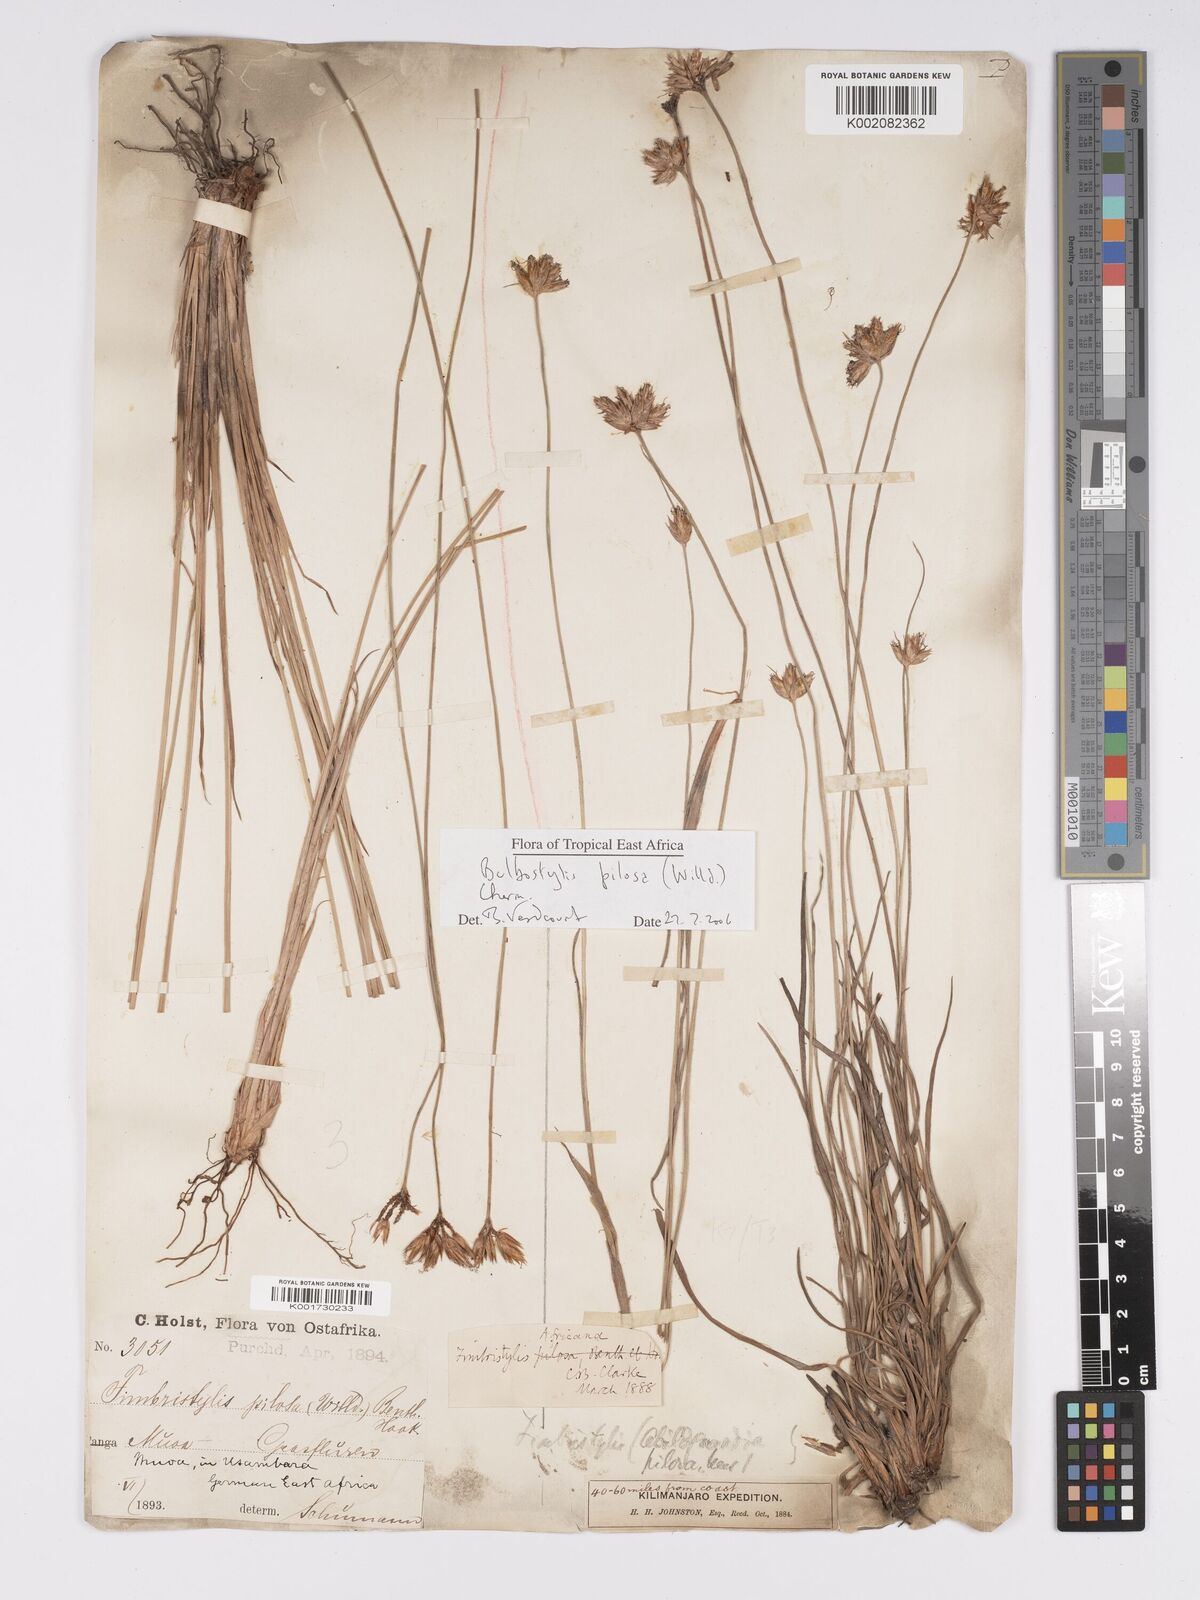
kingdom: Plantae
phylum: Tracheophyta
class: Liliopsida
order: Poales
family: Cyperaceae
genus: Bulbostylis
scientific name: Bulbostylis pilosa
